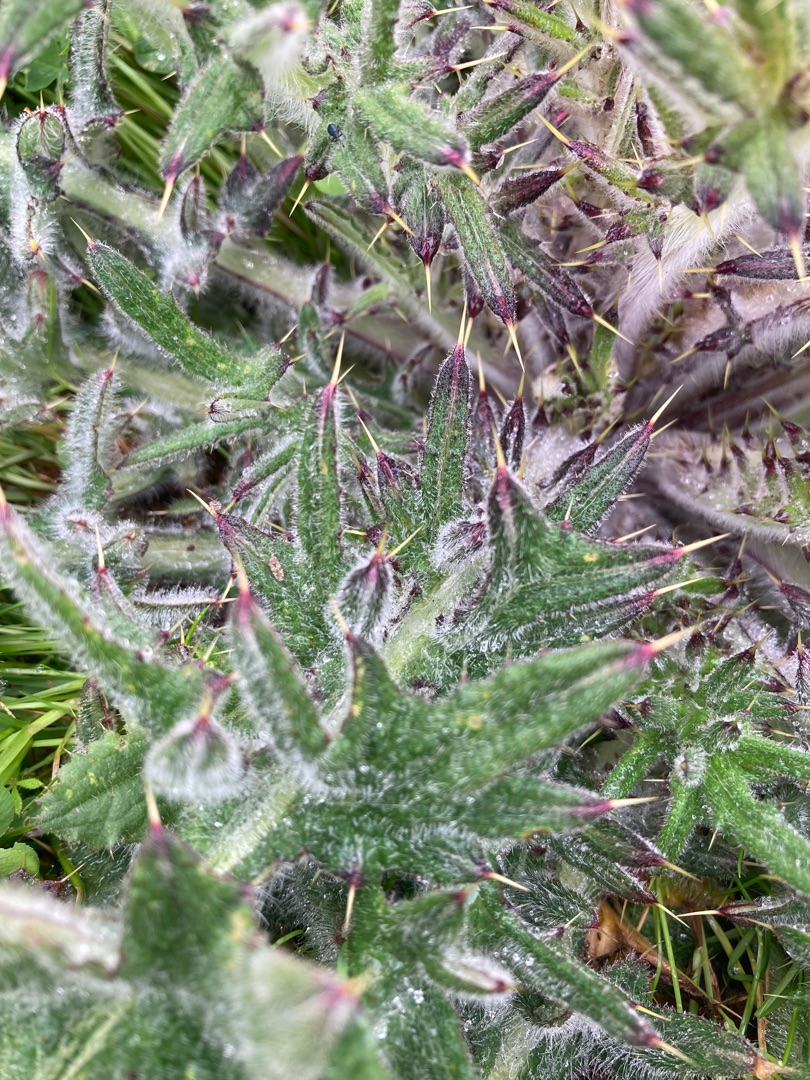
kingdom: Plantae
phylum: Tracheophyta
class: Magnoliopsida
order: Asterales
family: Asteraceae
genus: Cirsium
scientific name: Cirsium vulgare
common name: Horse-tidsel
